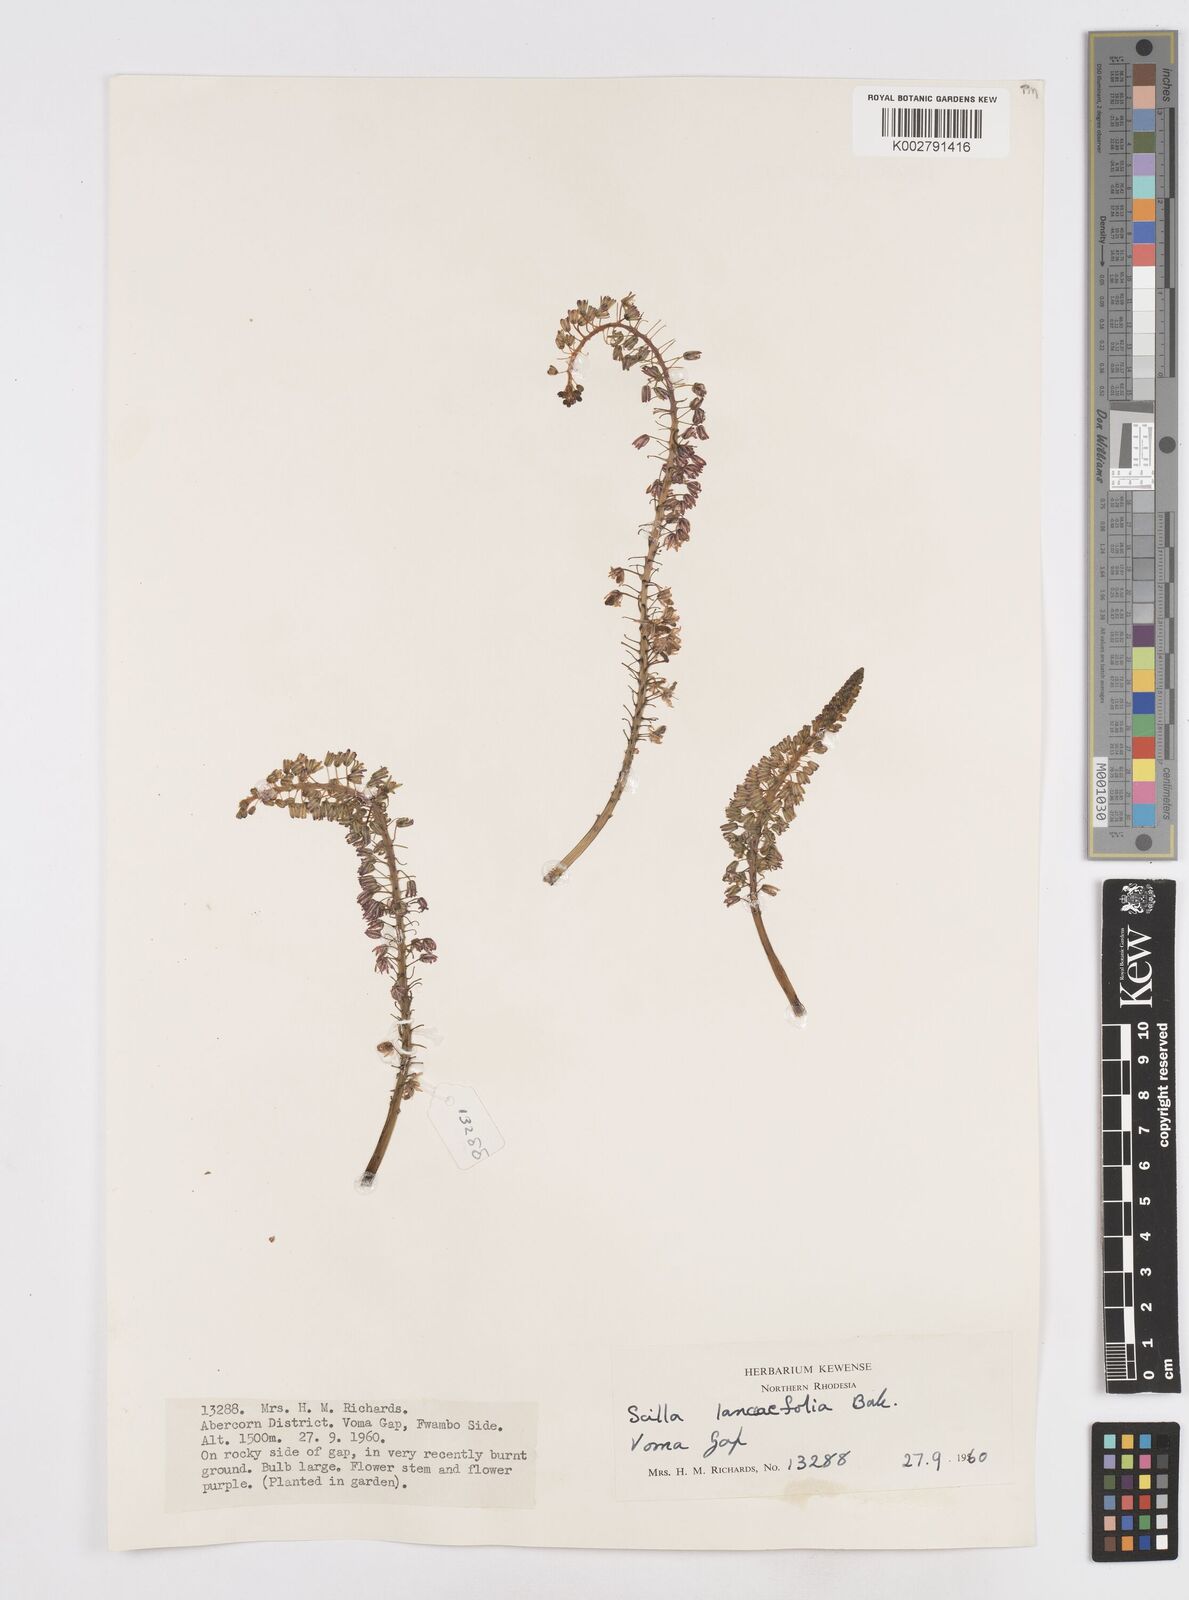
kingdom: Plantae
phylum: Tracheophyta
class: Liliopsida
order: Asparagales
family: Asparagaceae
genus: Ledebouria
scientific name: Ledebouria revoluta
